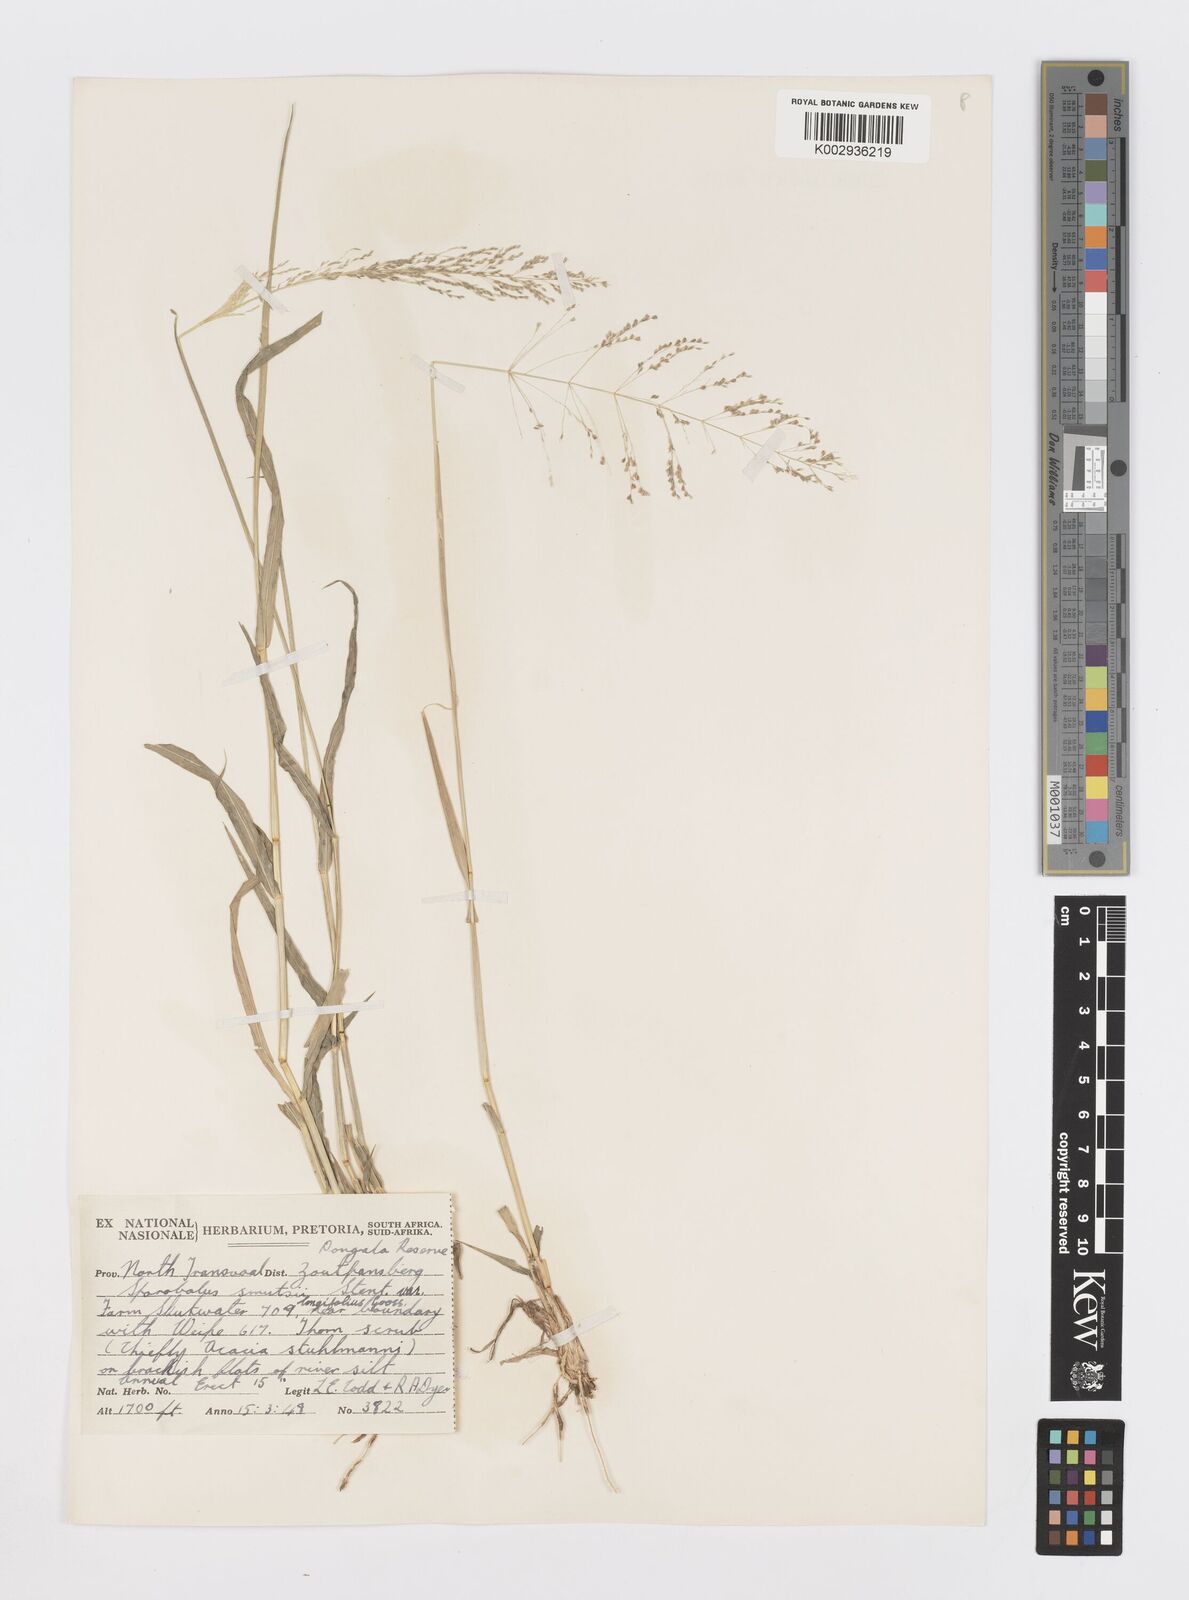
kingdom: Plantae
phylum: Tracheophyta
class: Liliopsida
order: Poales
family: Poaceae
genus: Sporobolus
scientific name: Sporobolus ioclados
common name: Pan dropseed
